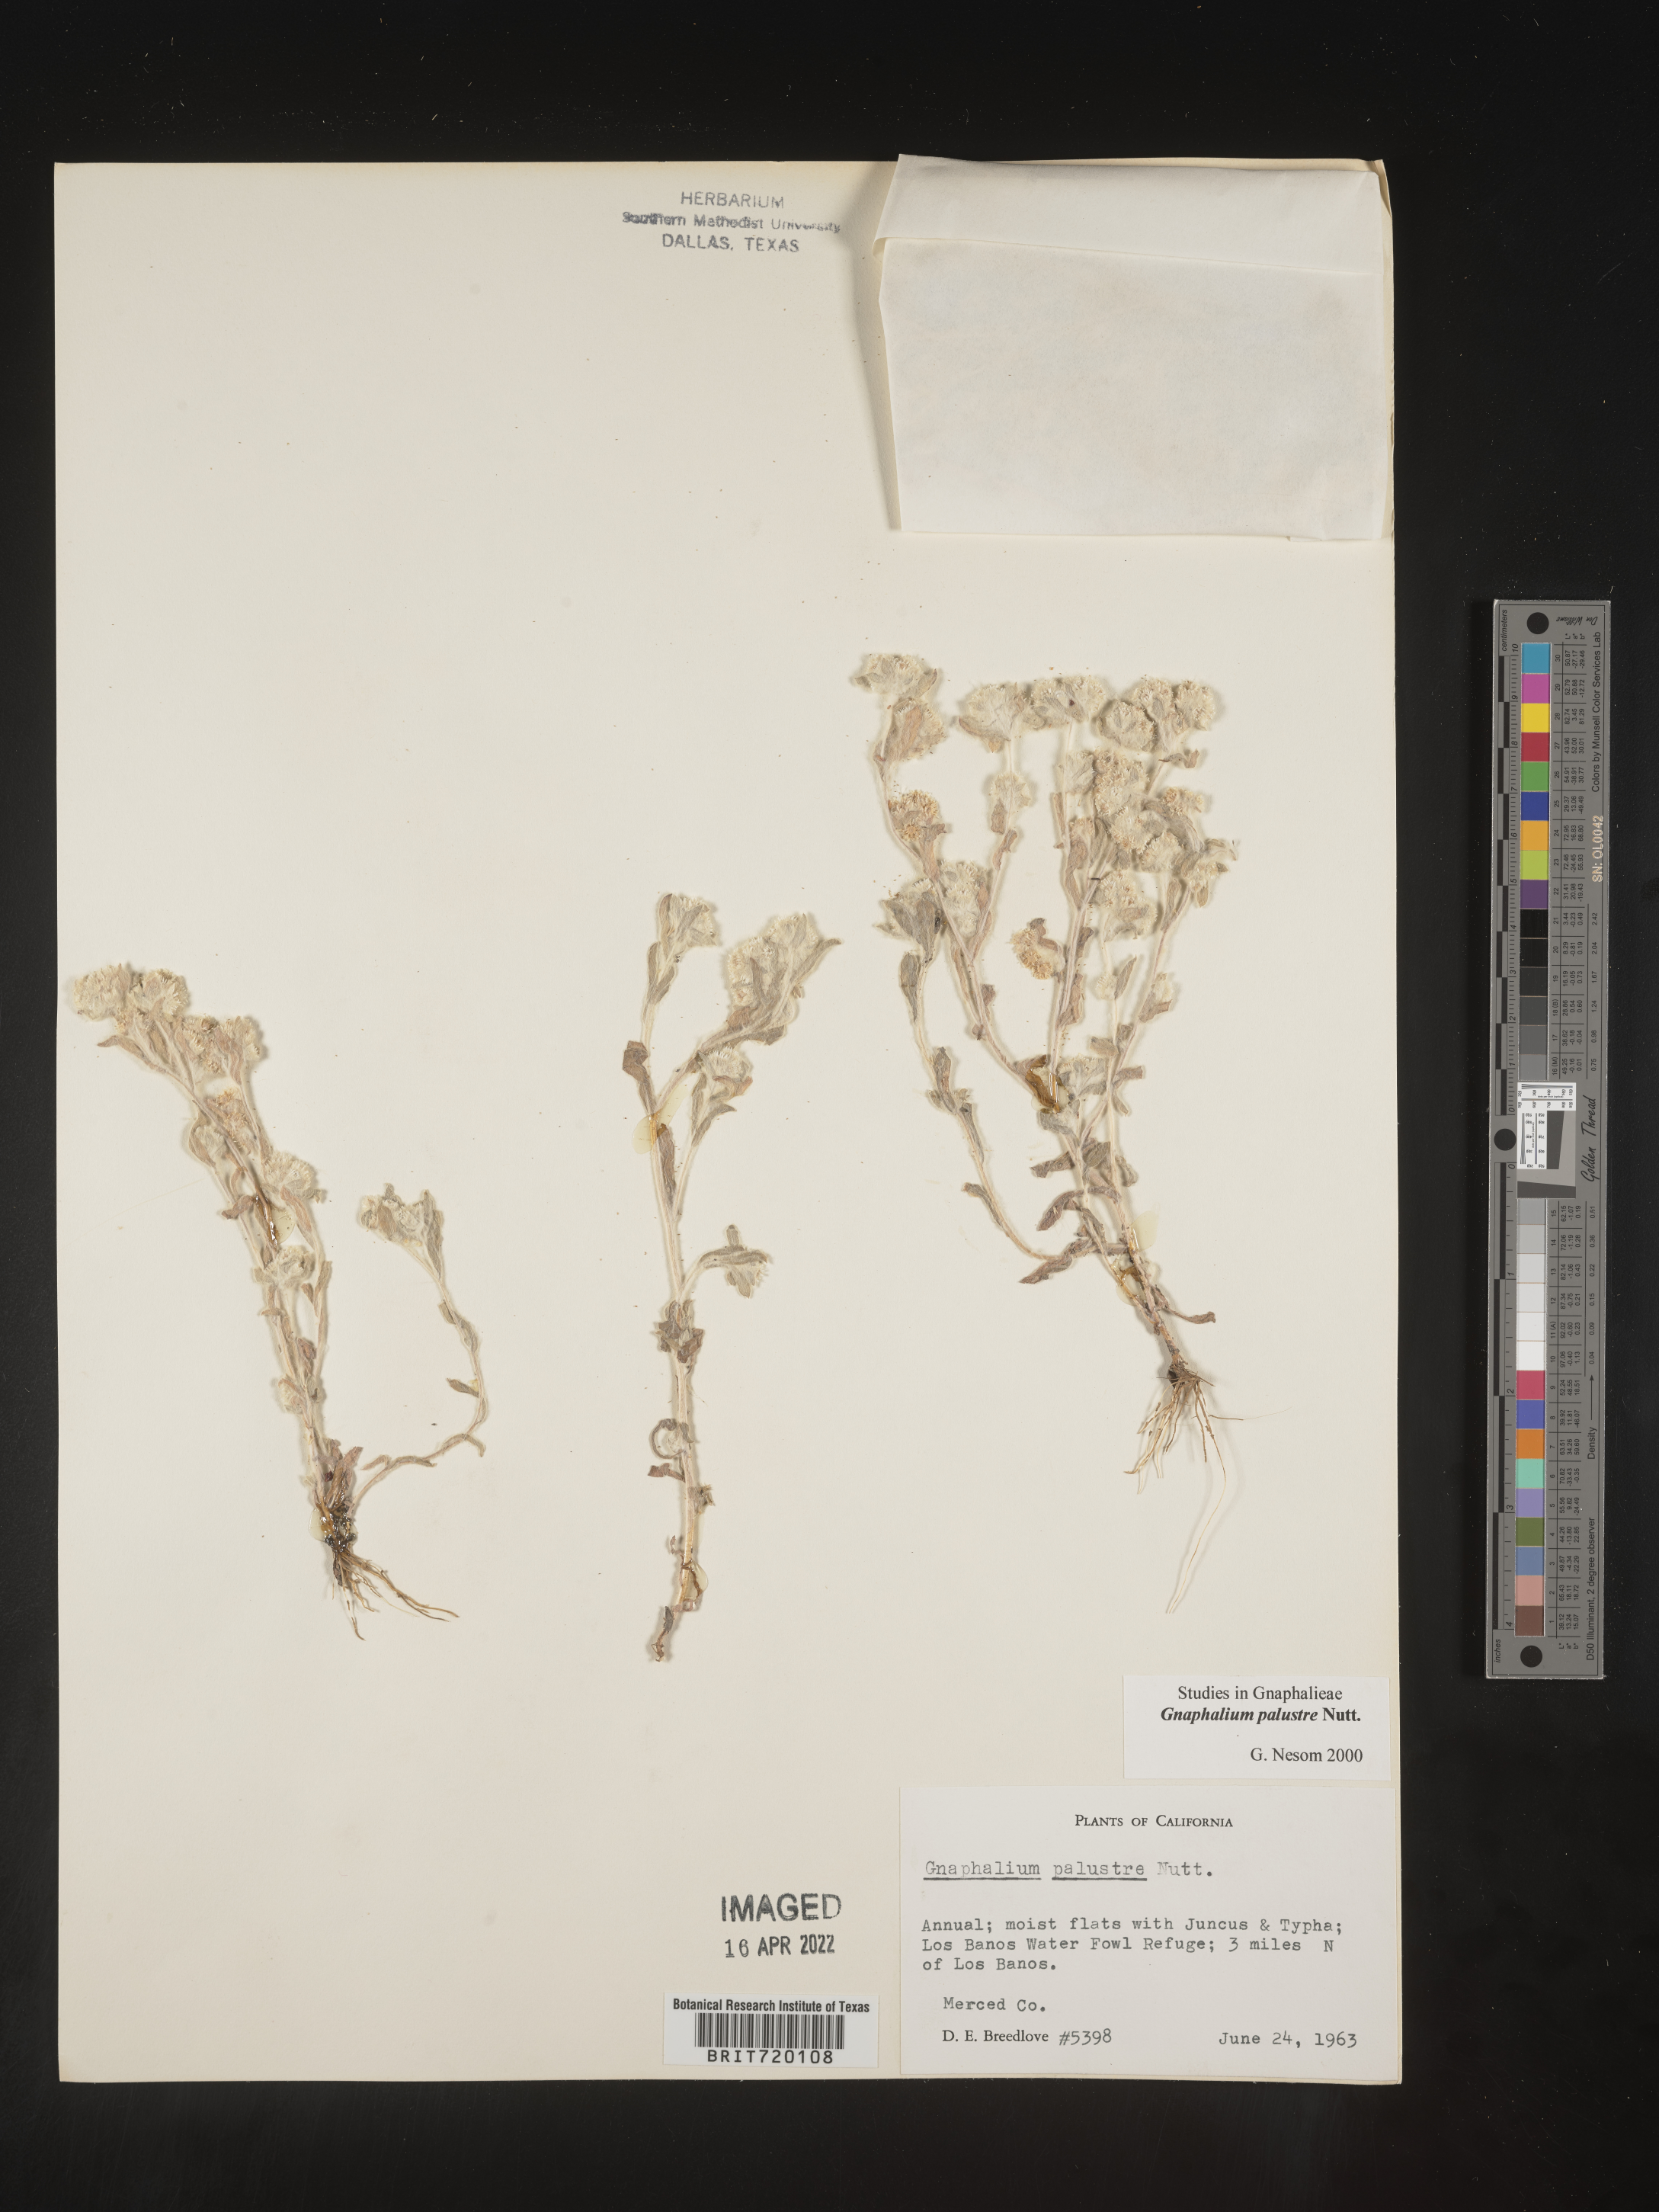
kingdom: Plantae
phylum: Tracheophyta
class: Magnoliopsida
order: Asterales
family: Asteraceae
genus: Gnaphalium
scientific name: Gnaphalium palustre
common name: Western marsh cudweed
